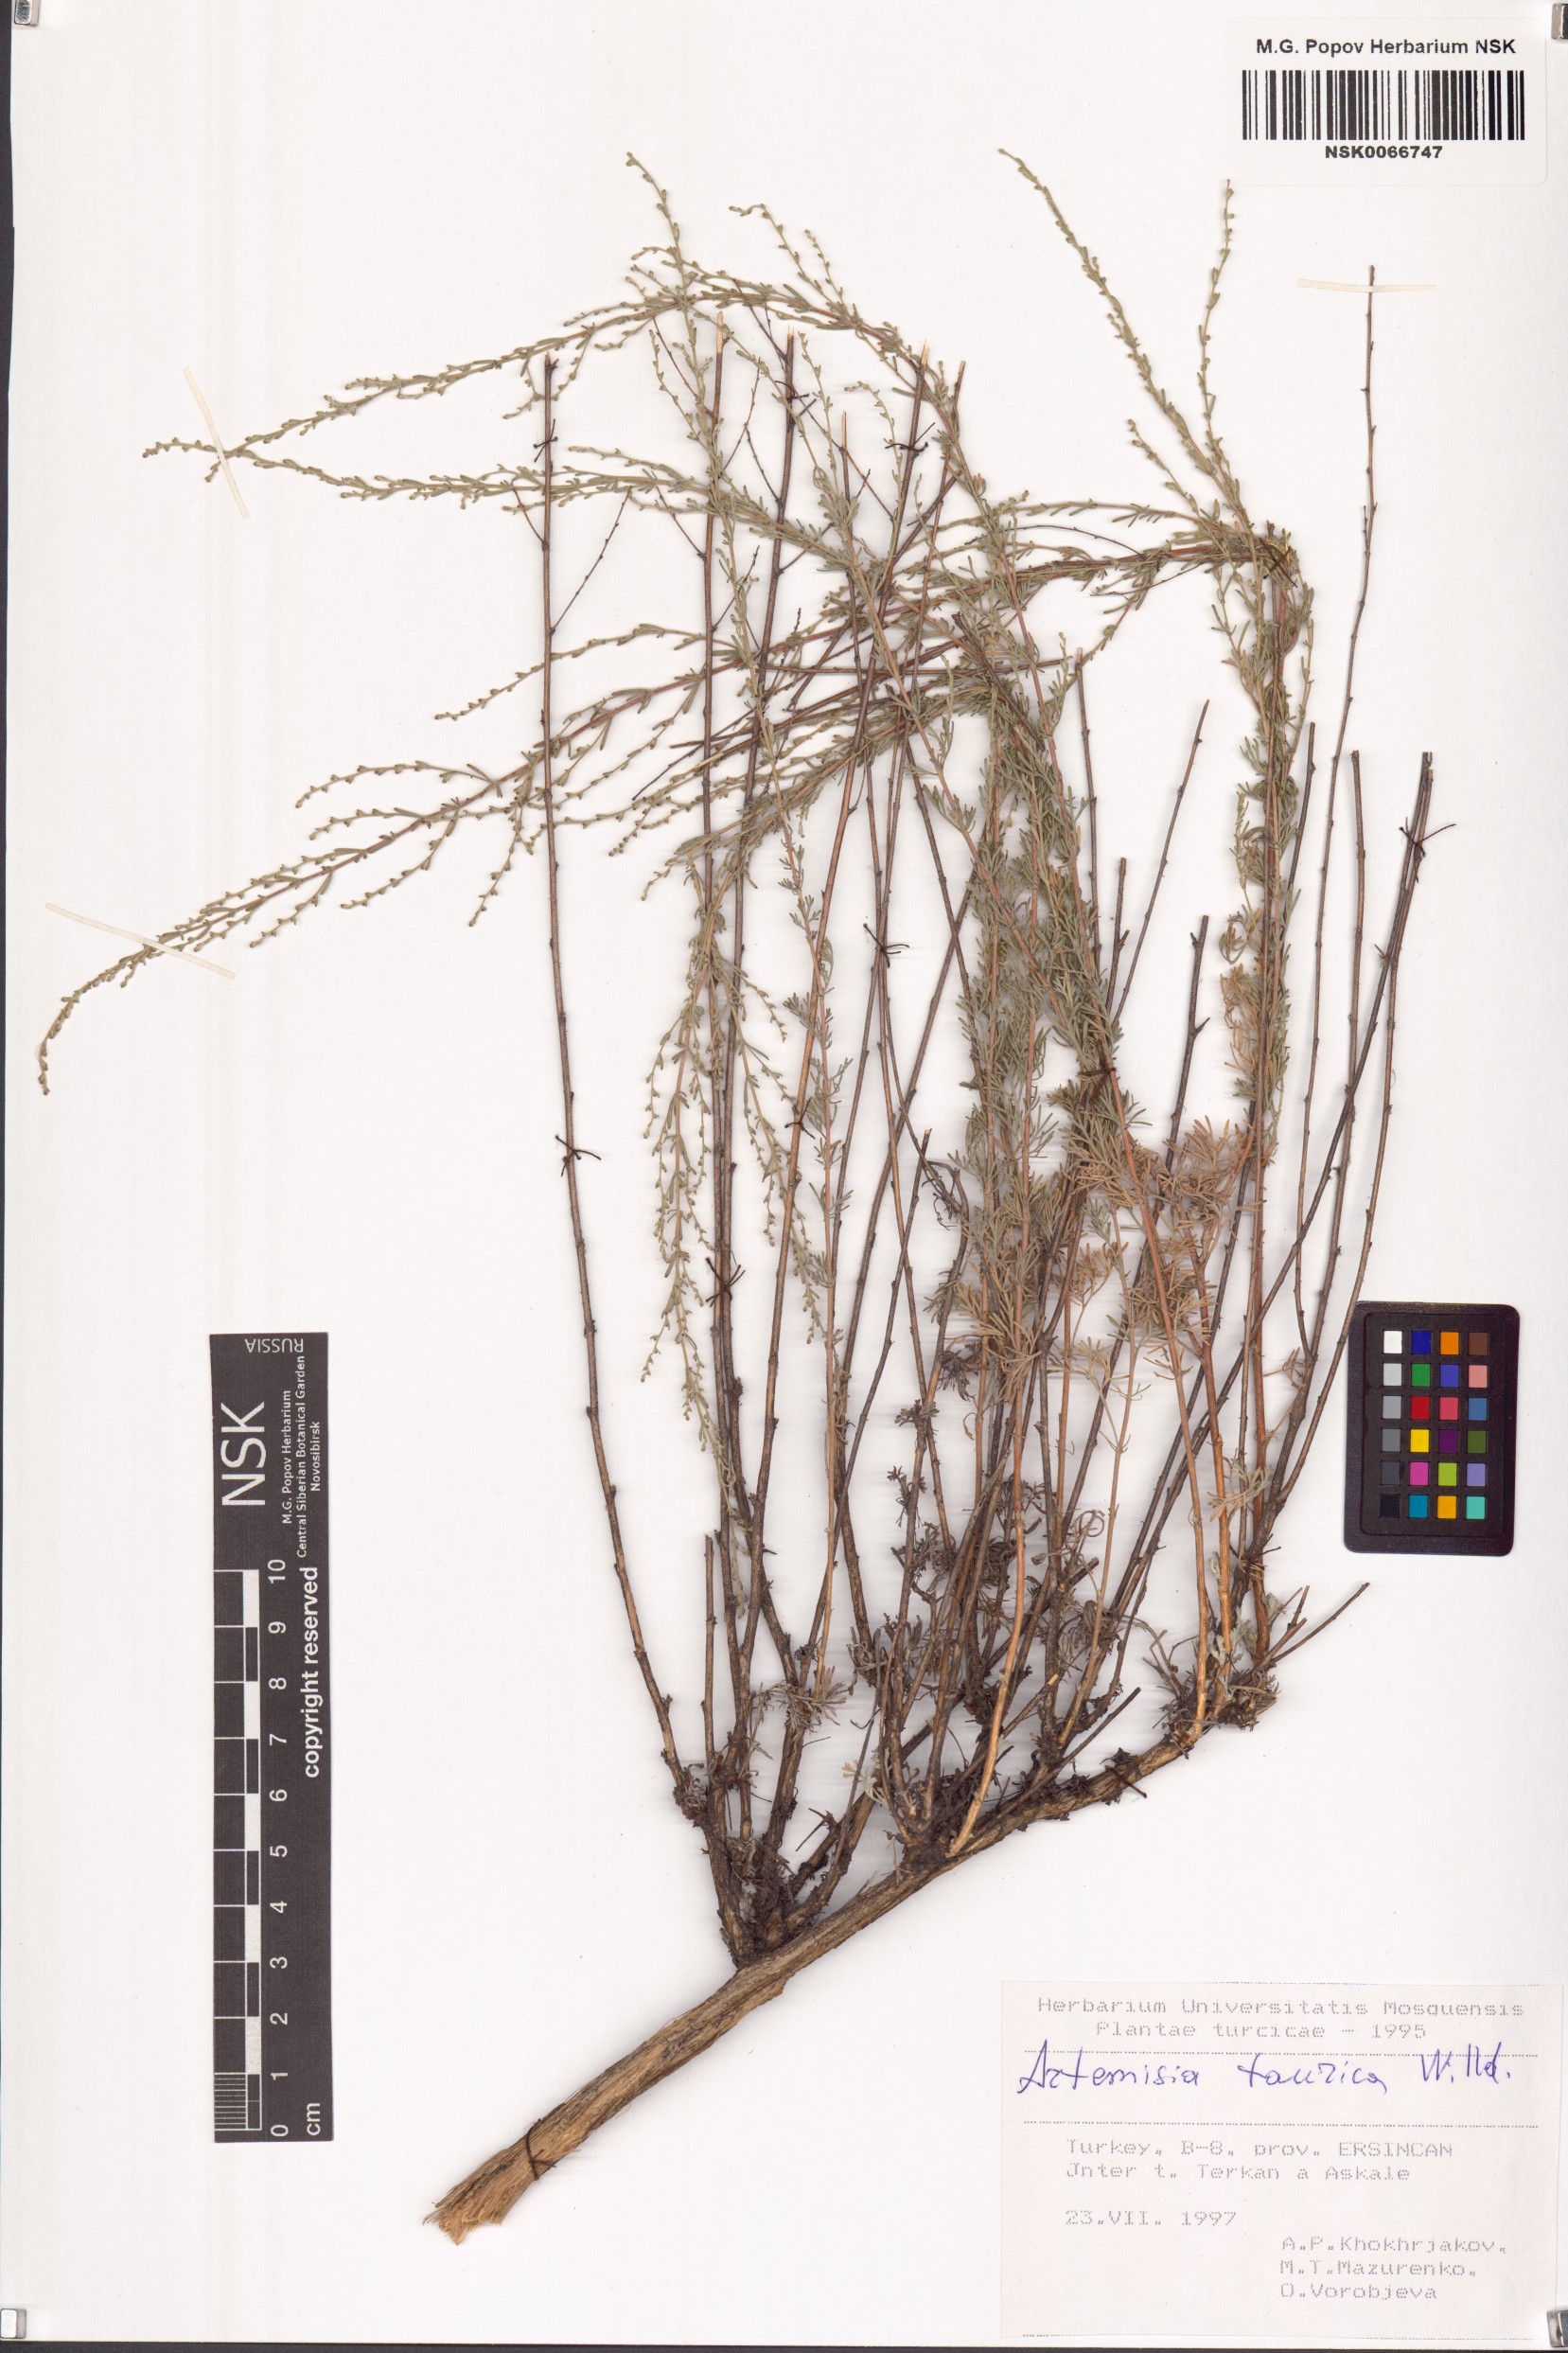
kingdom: Plantae
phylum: Tracheophyta
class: Magnoliopsida
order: Asterales
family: Asteraceae
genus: Artemisia
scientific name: Artemisia taurica
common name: Tauric wormwood
